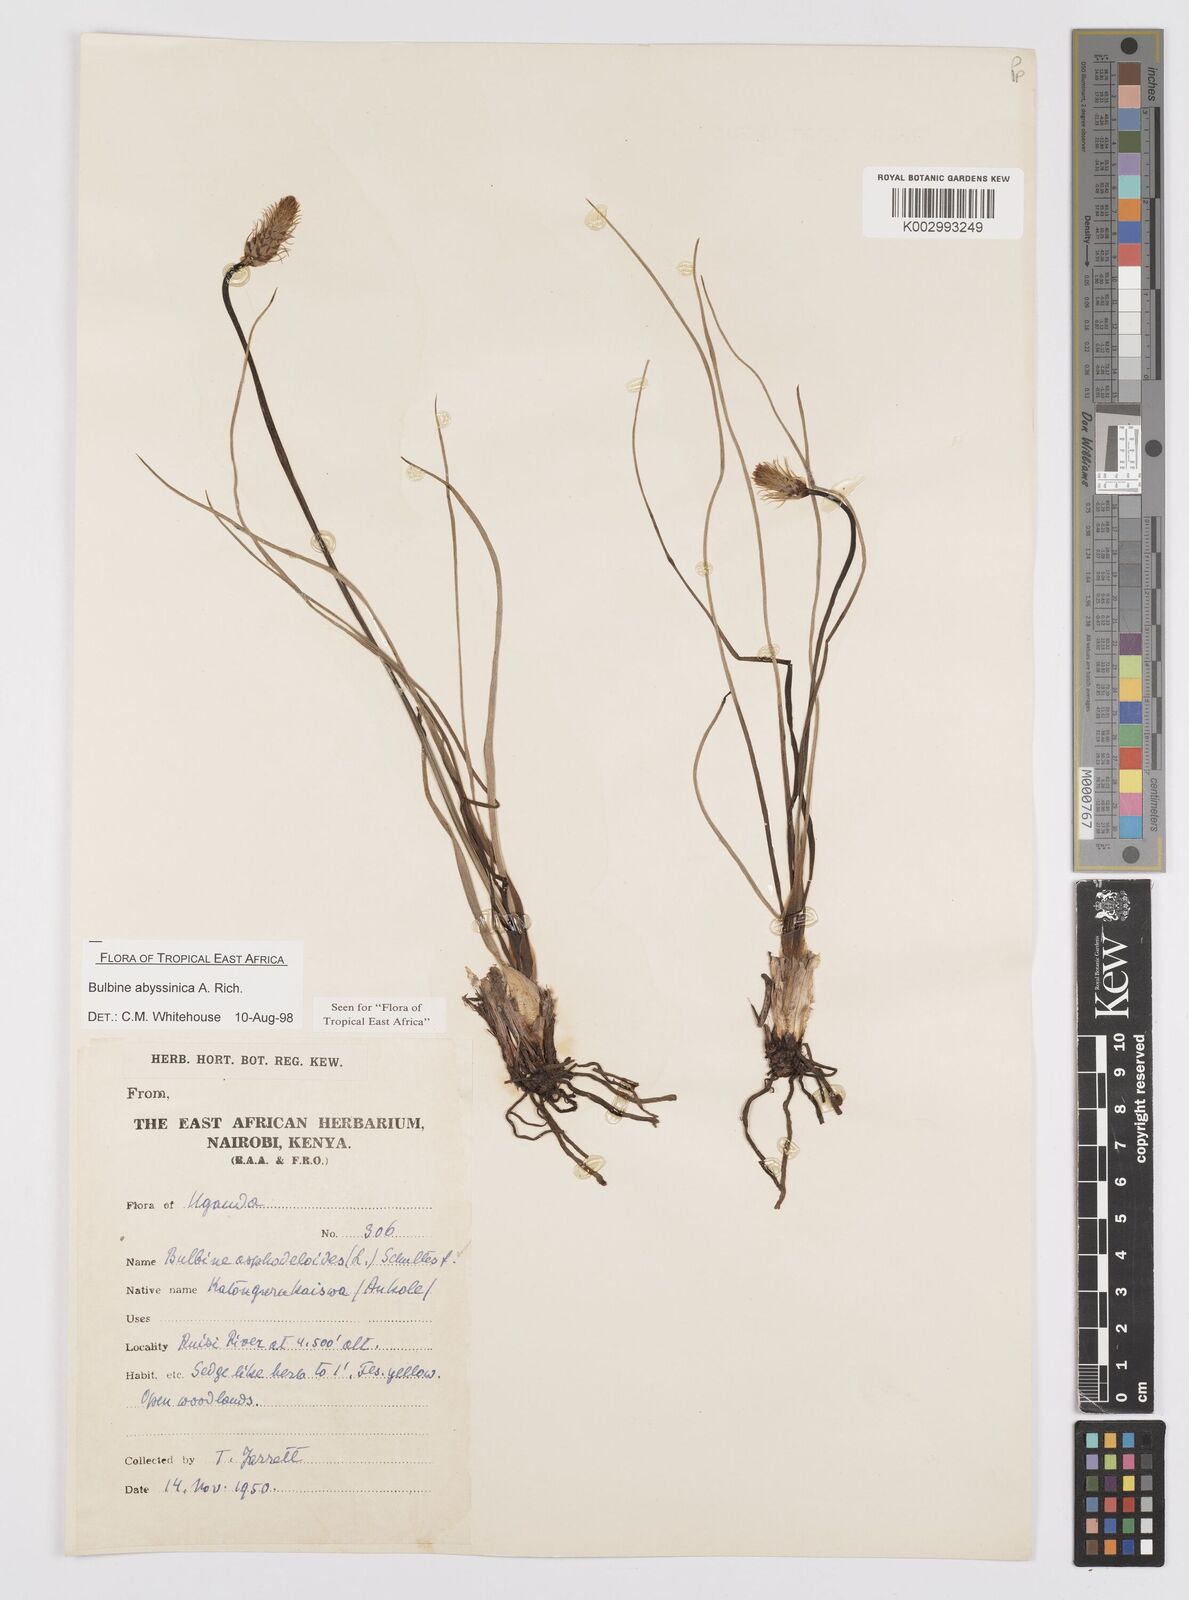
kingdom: Plantae
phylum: Tracheophyta
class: Liliopsida
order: Asparagales
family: Asphodelaceae
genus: Bulbine
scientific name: Bulbine abyssinica
